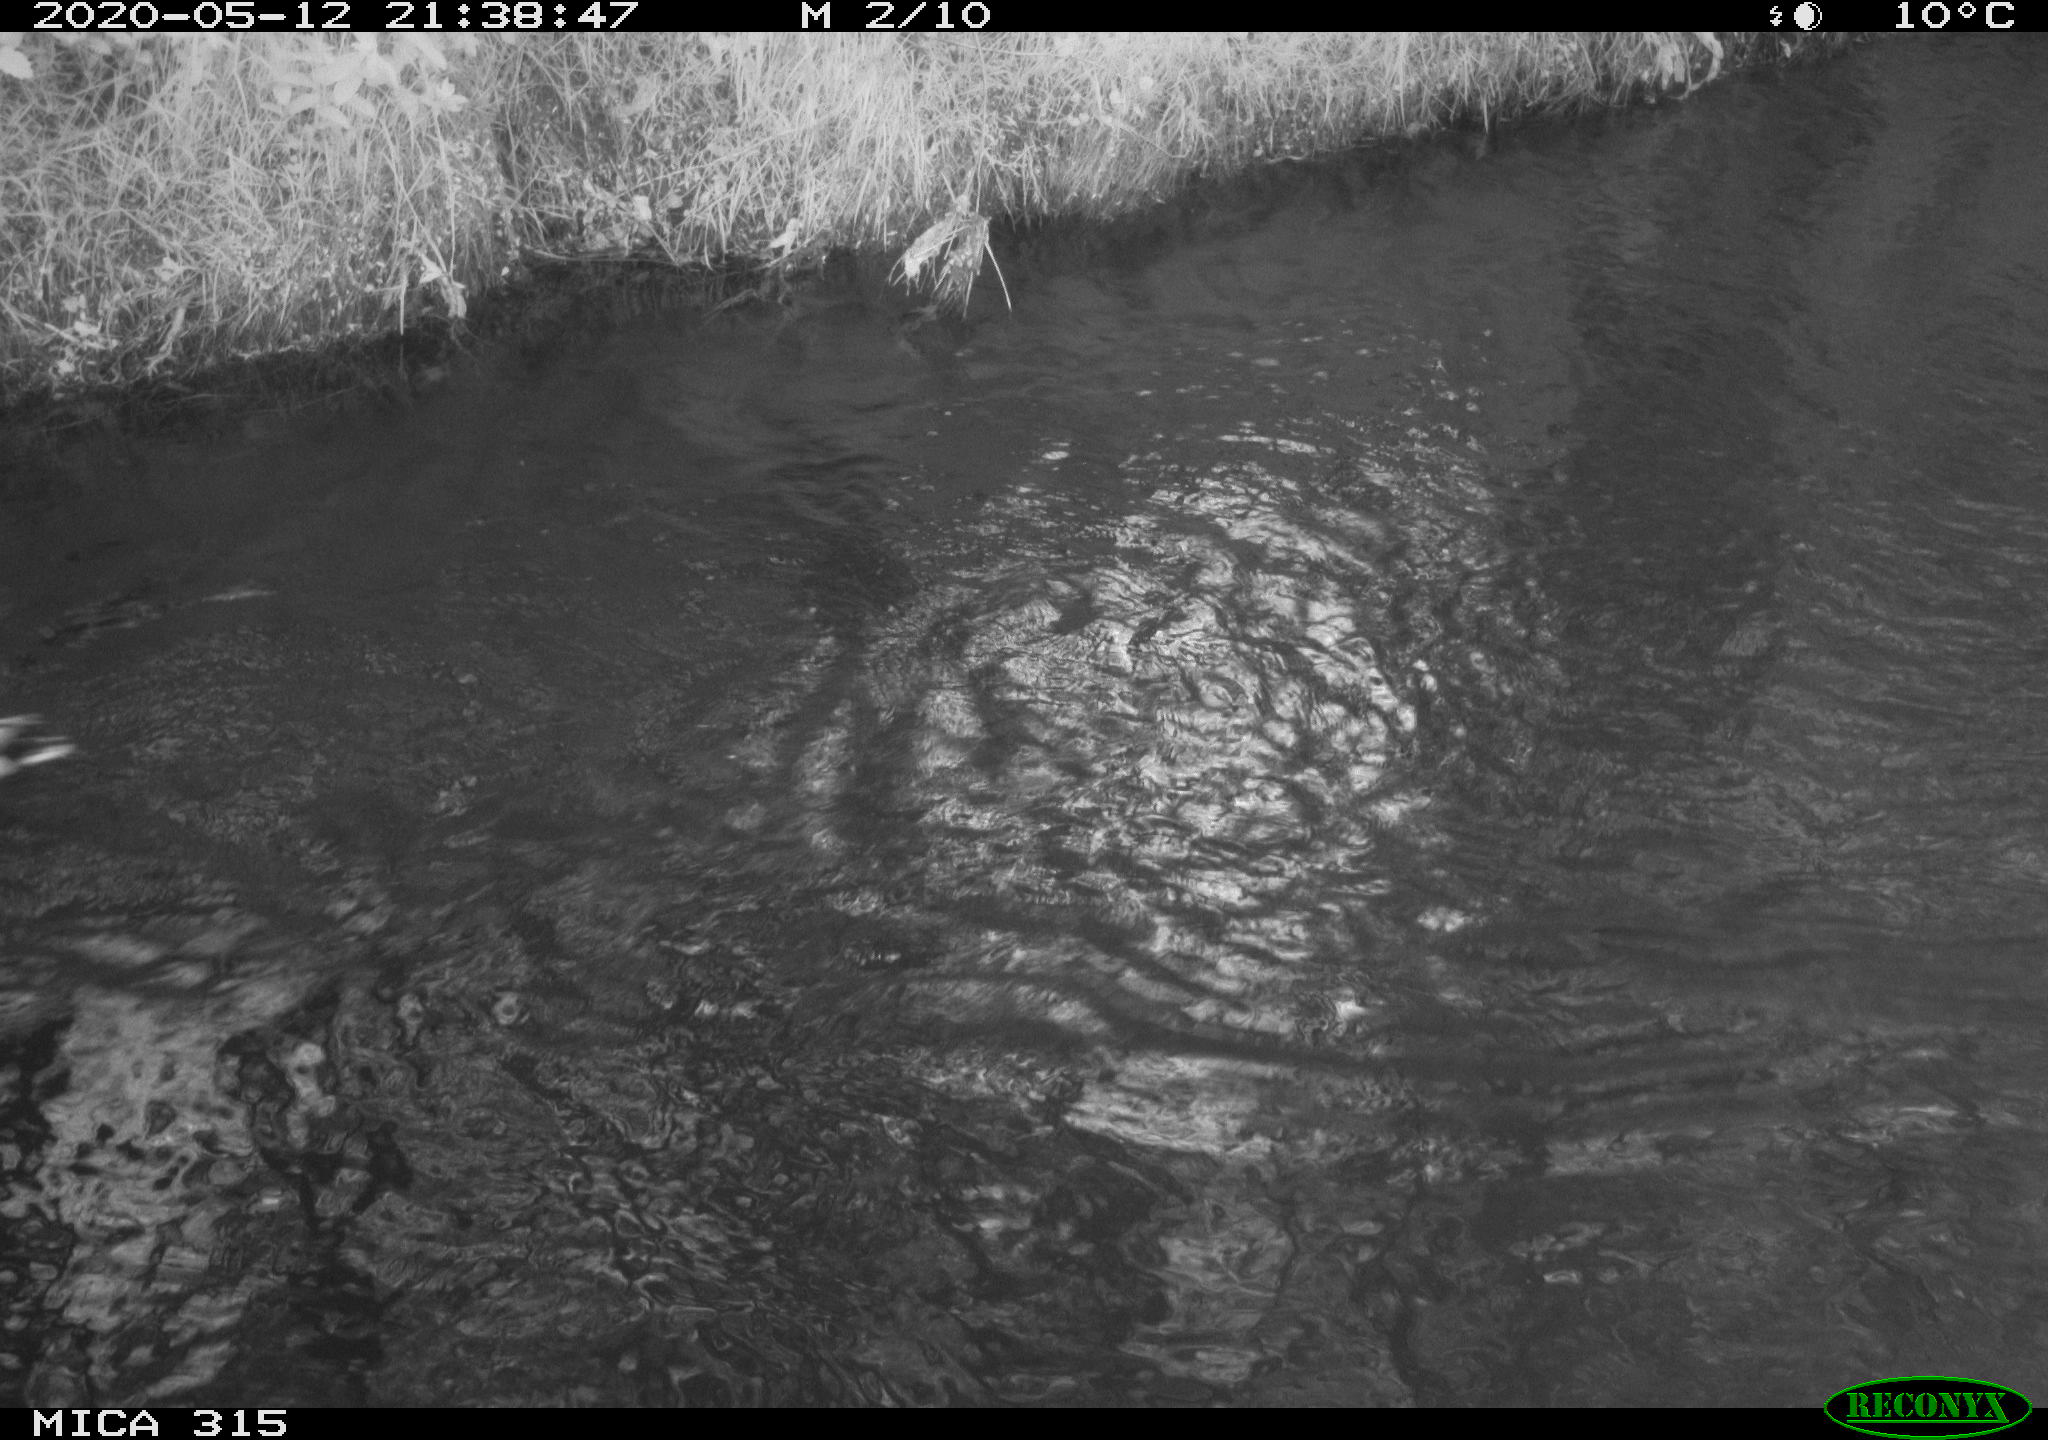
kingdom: Animalia
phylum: Chordata
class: Aves
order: Anseriformes
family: Anatidae
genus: Anas
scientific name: Anas platyrhynchos
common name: Mallard
